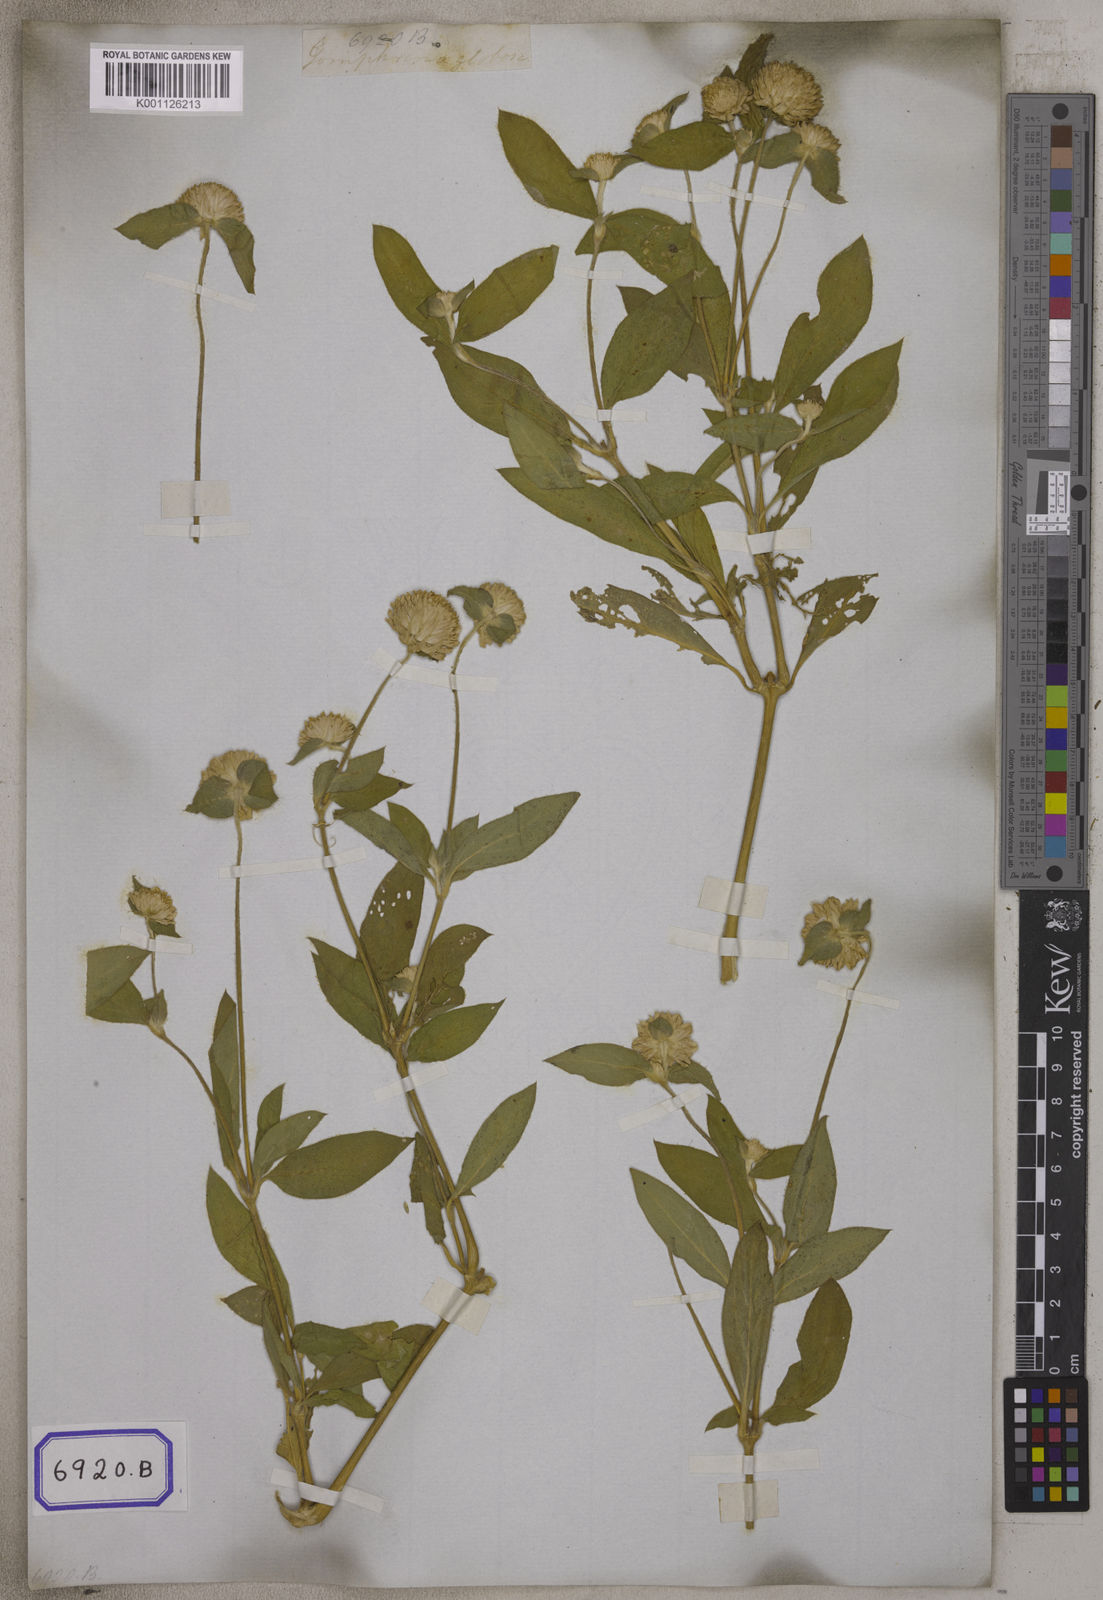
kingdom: Plantae
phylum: Tracheophyta
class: Magnoliopsida
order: Caryophyllales
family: Amaranthaceae
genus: Gomphrena
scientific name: Gomphrena globosa
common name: Common globe amaranth
